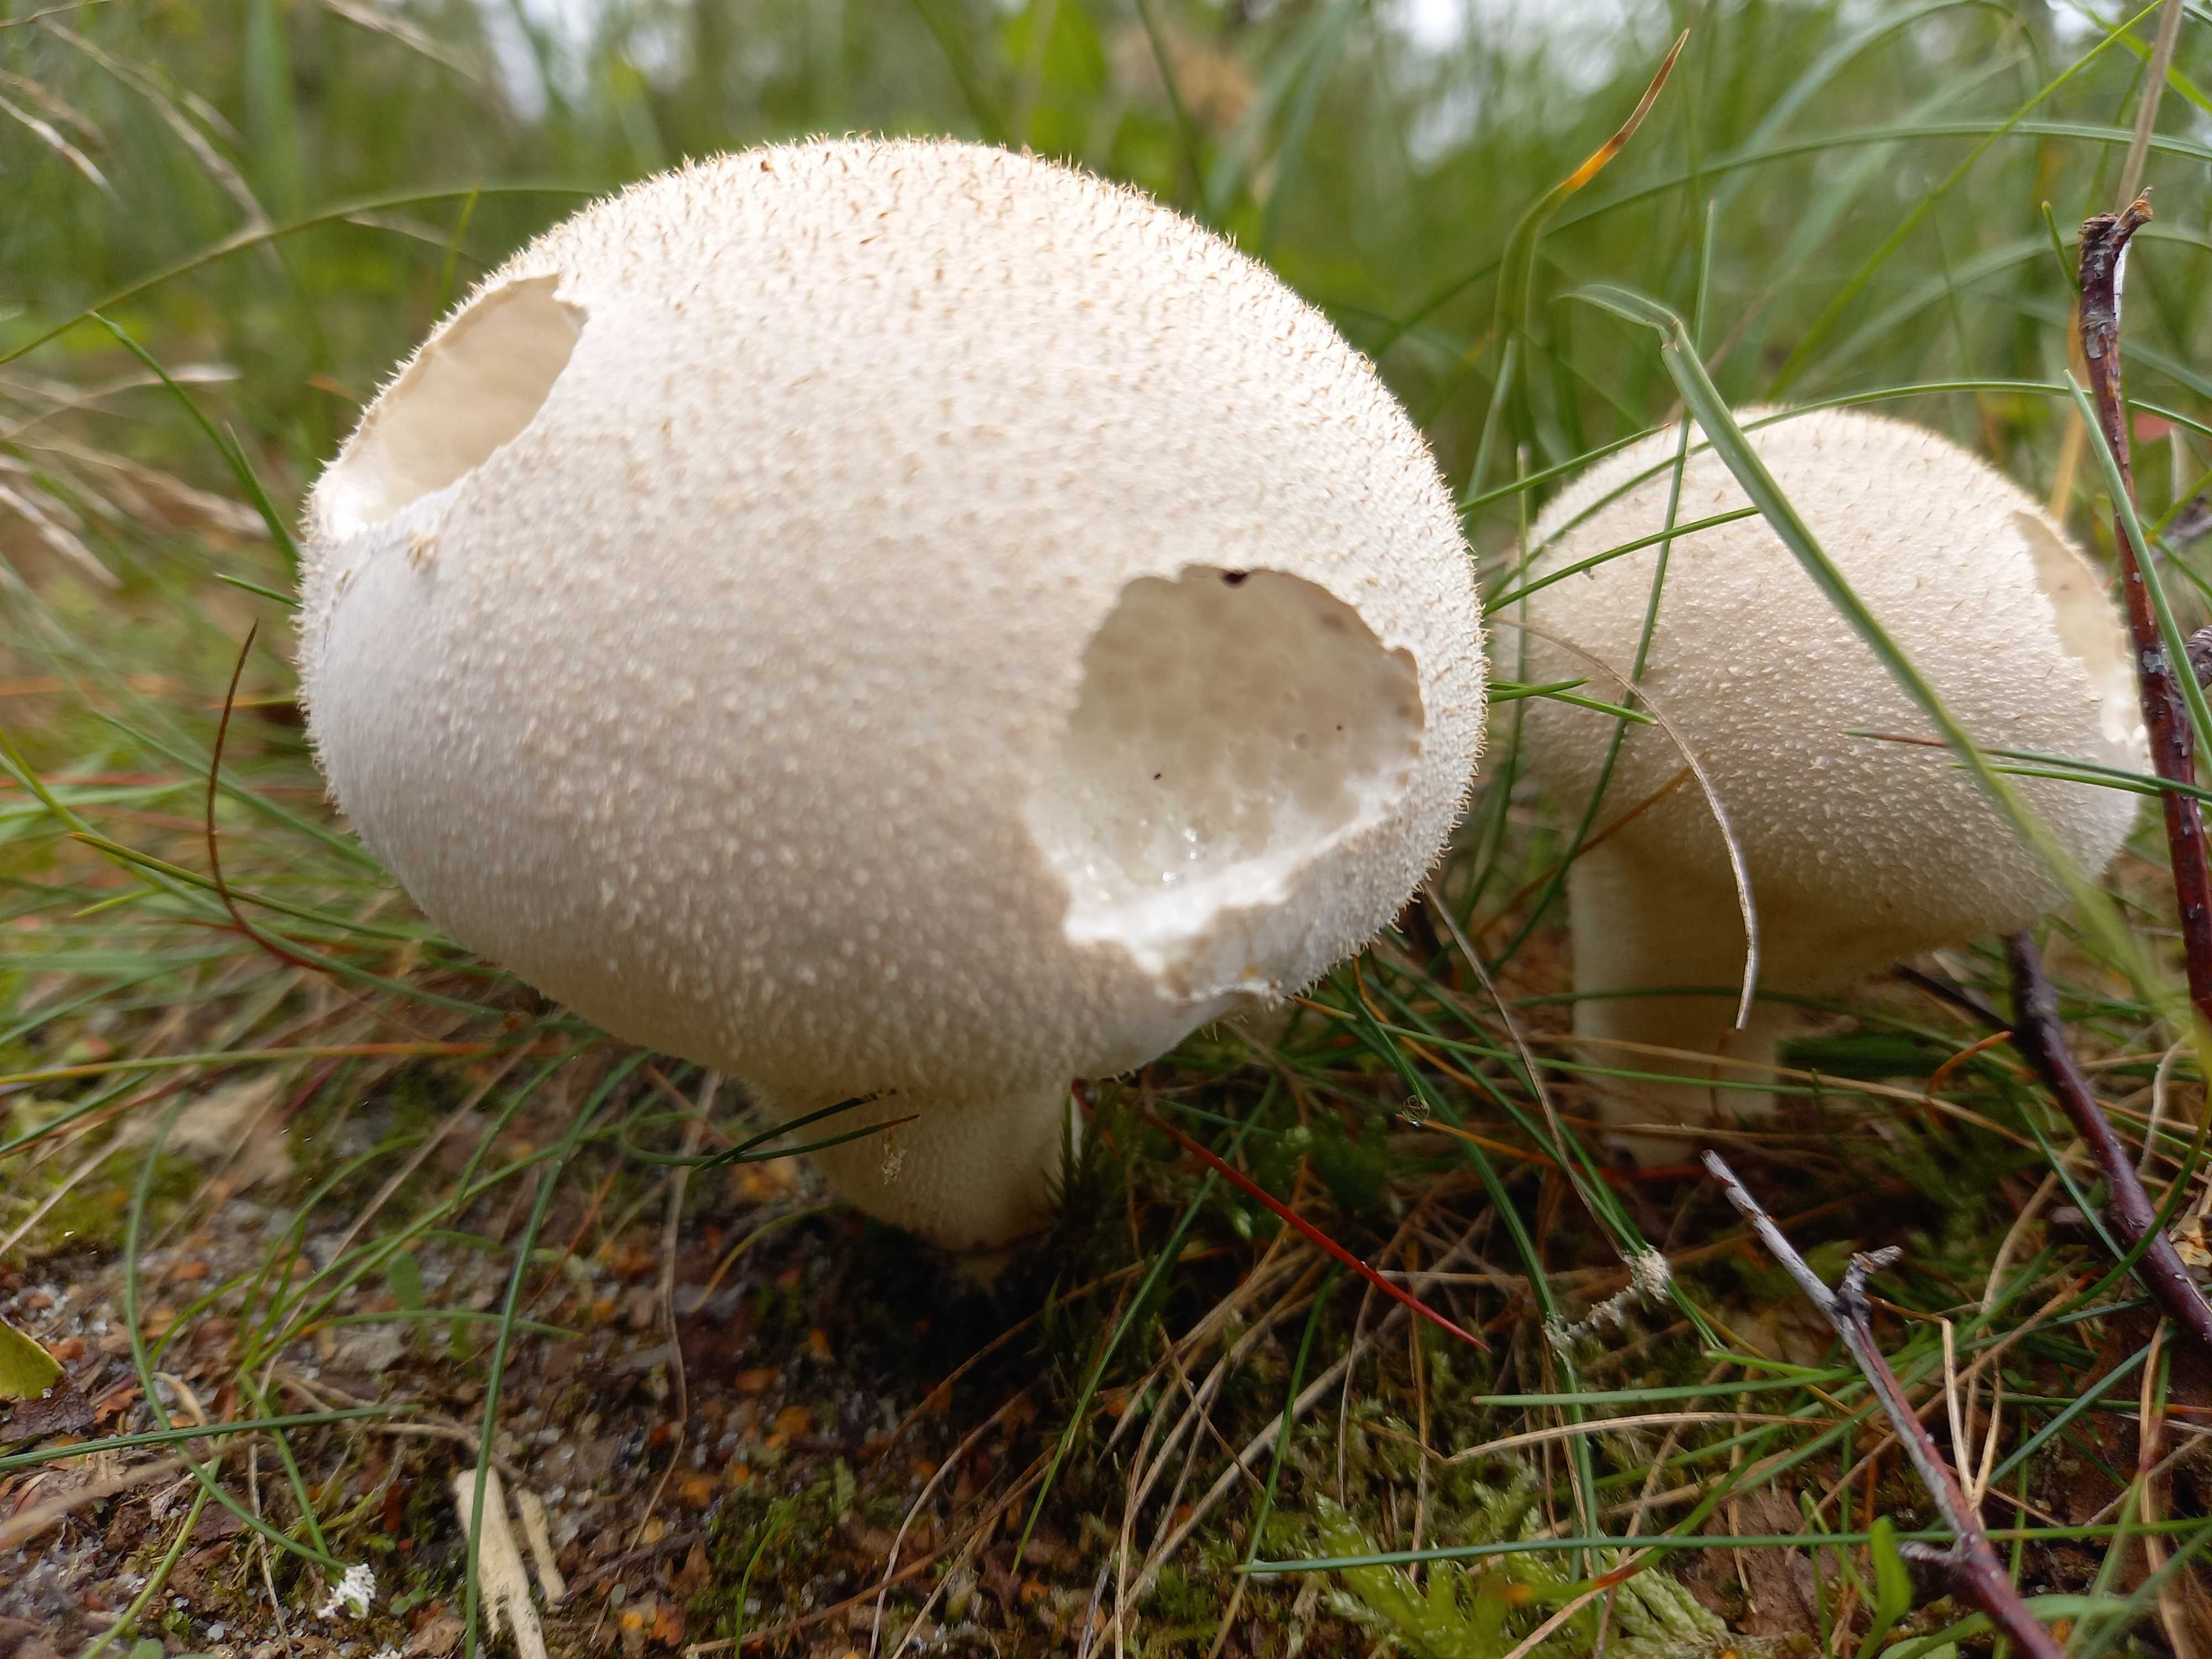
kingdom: Fungi
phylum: Basidiomycota
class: Agaricomycetes
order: Agaricales
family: Lycoperdaceae
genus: Lycoperdon
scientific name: Lycoperdon excipuliforme
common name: højstokket støvbold
